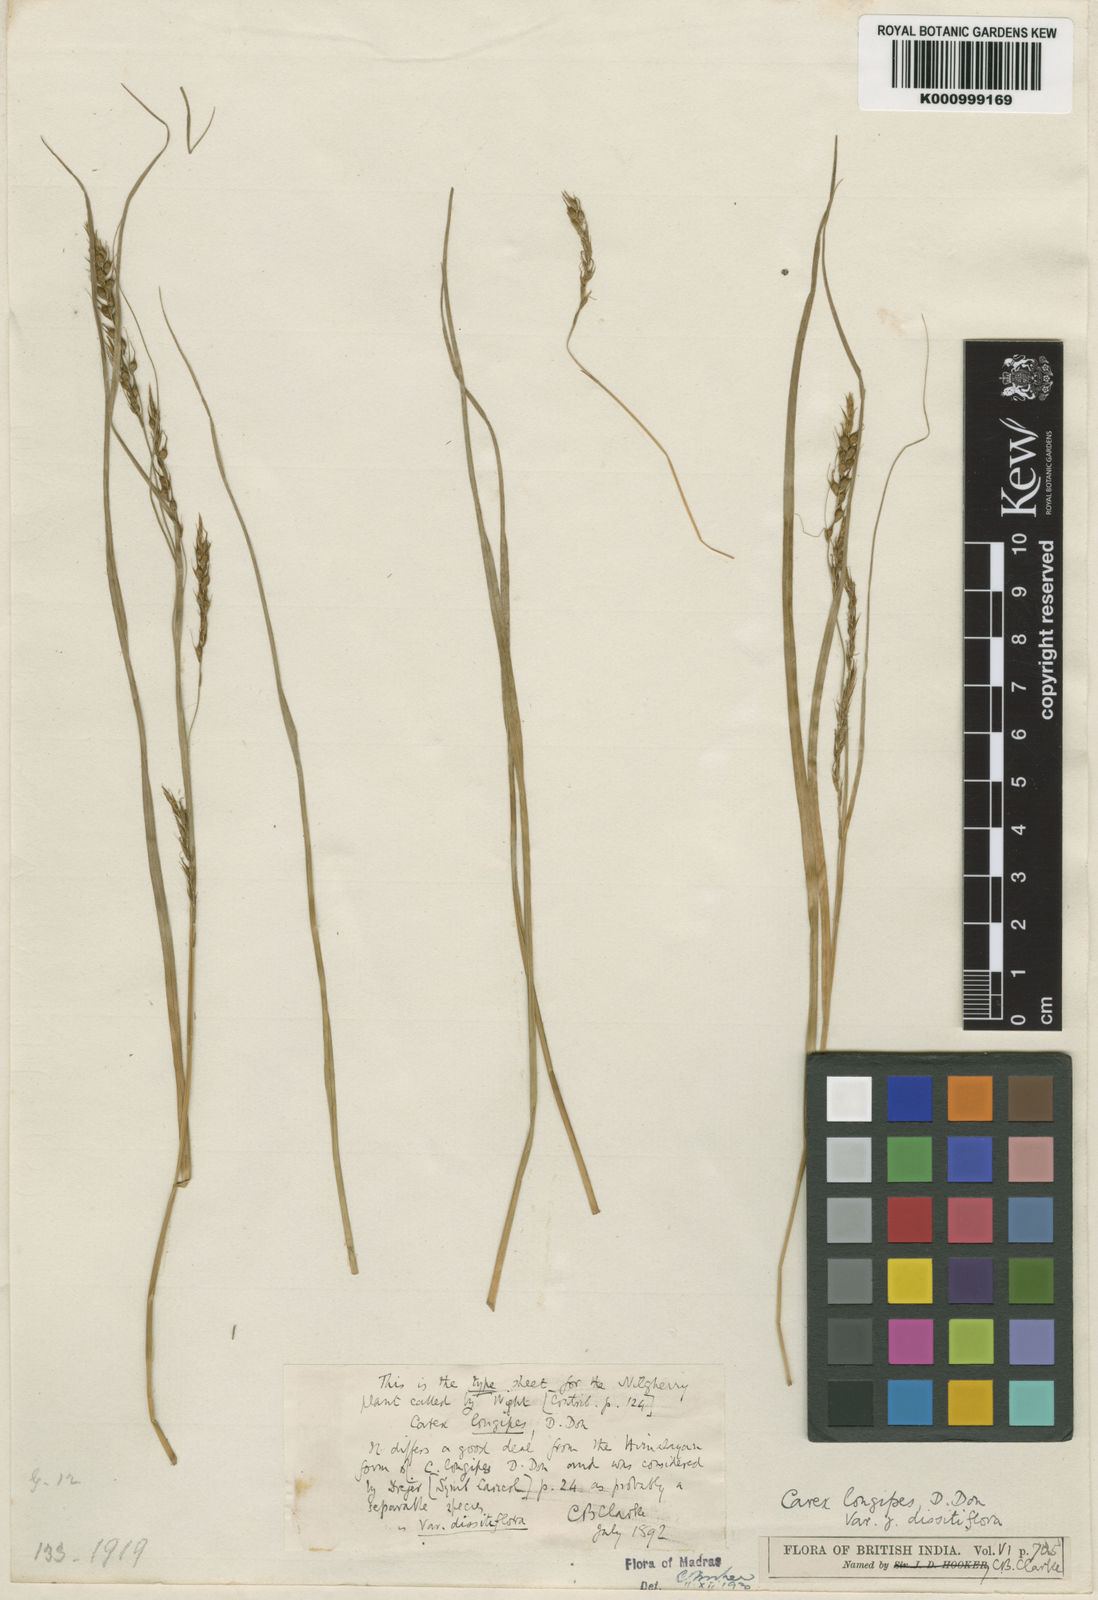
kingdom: Plantae
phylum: Tracheophyta
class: Liliopsida
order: Poales
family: Cyperaceae
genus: Carex
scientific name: Carex longipes
